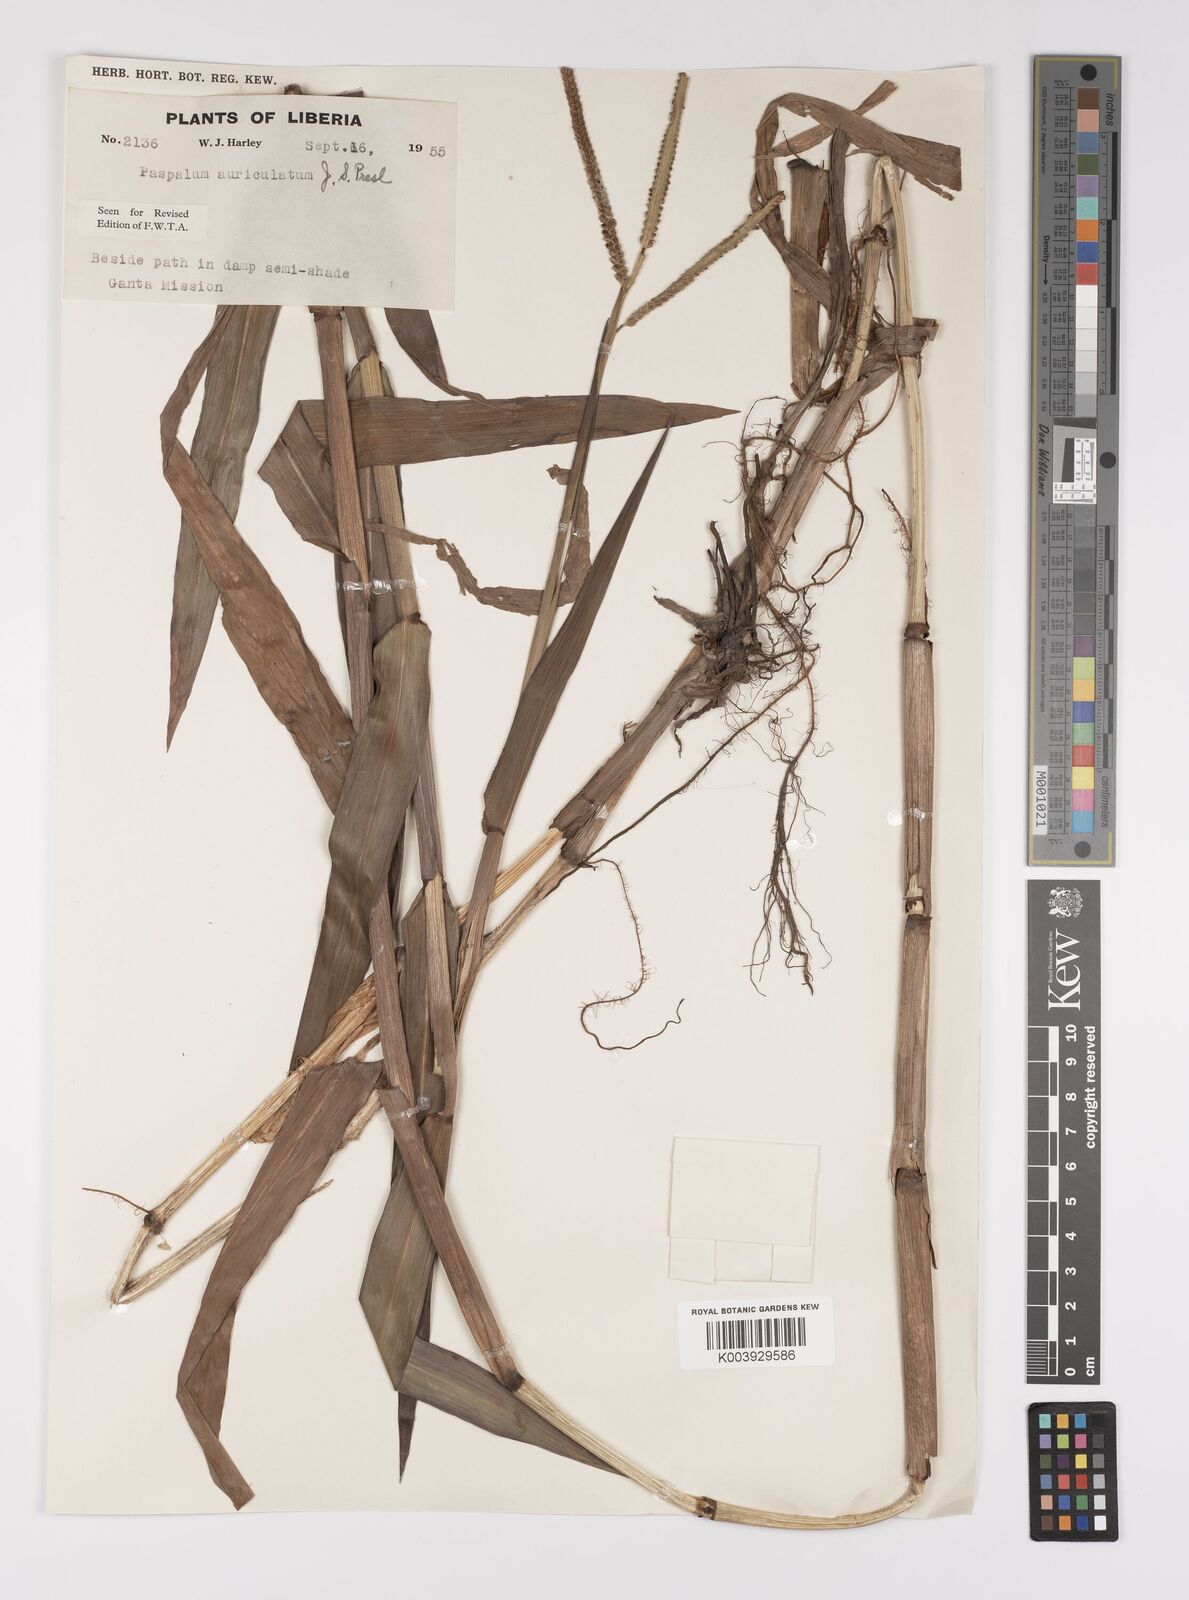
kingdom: Plantae
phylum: Tracheophyta
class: Liliopsida
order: Poales
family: Poaceae
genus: Paspalum
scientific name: Paspalum lamprocaryon
